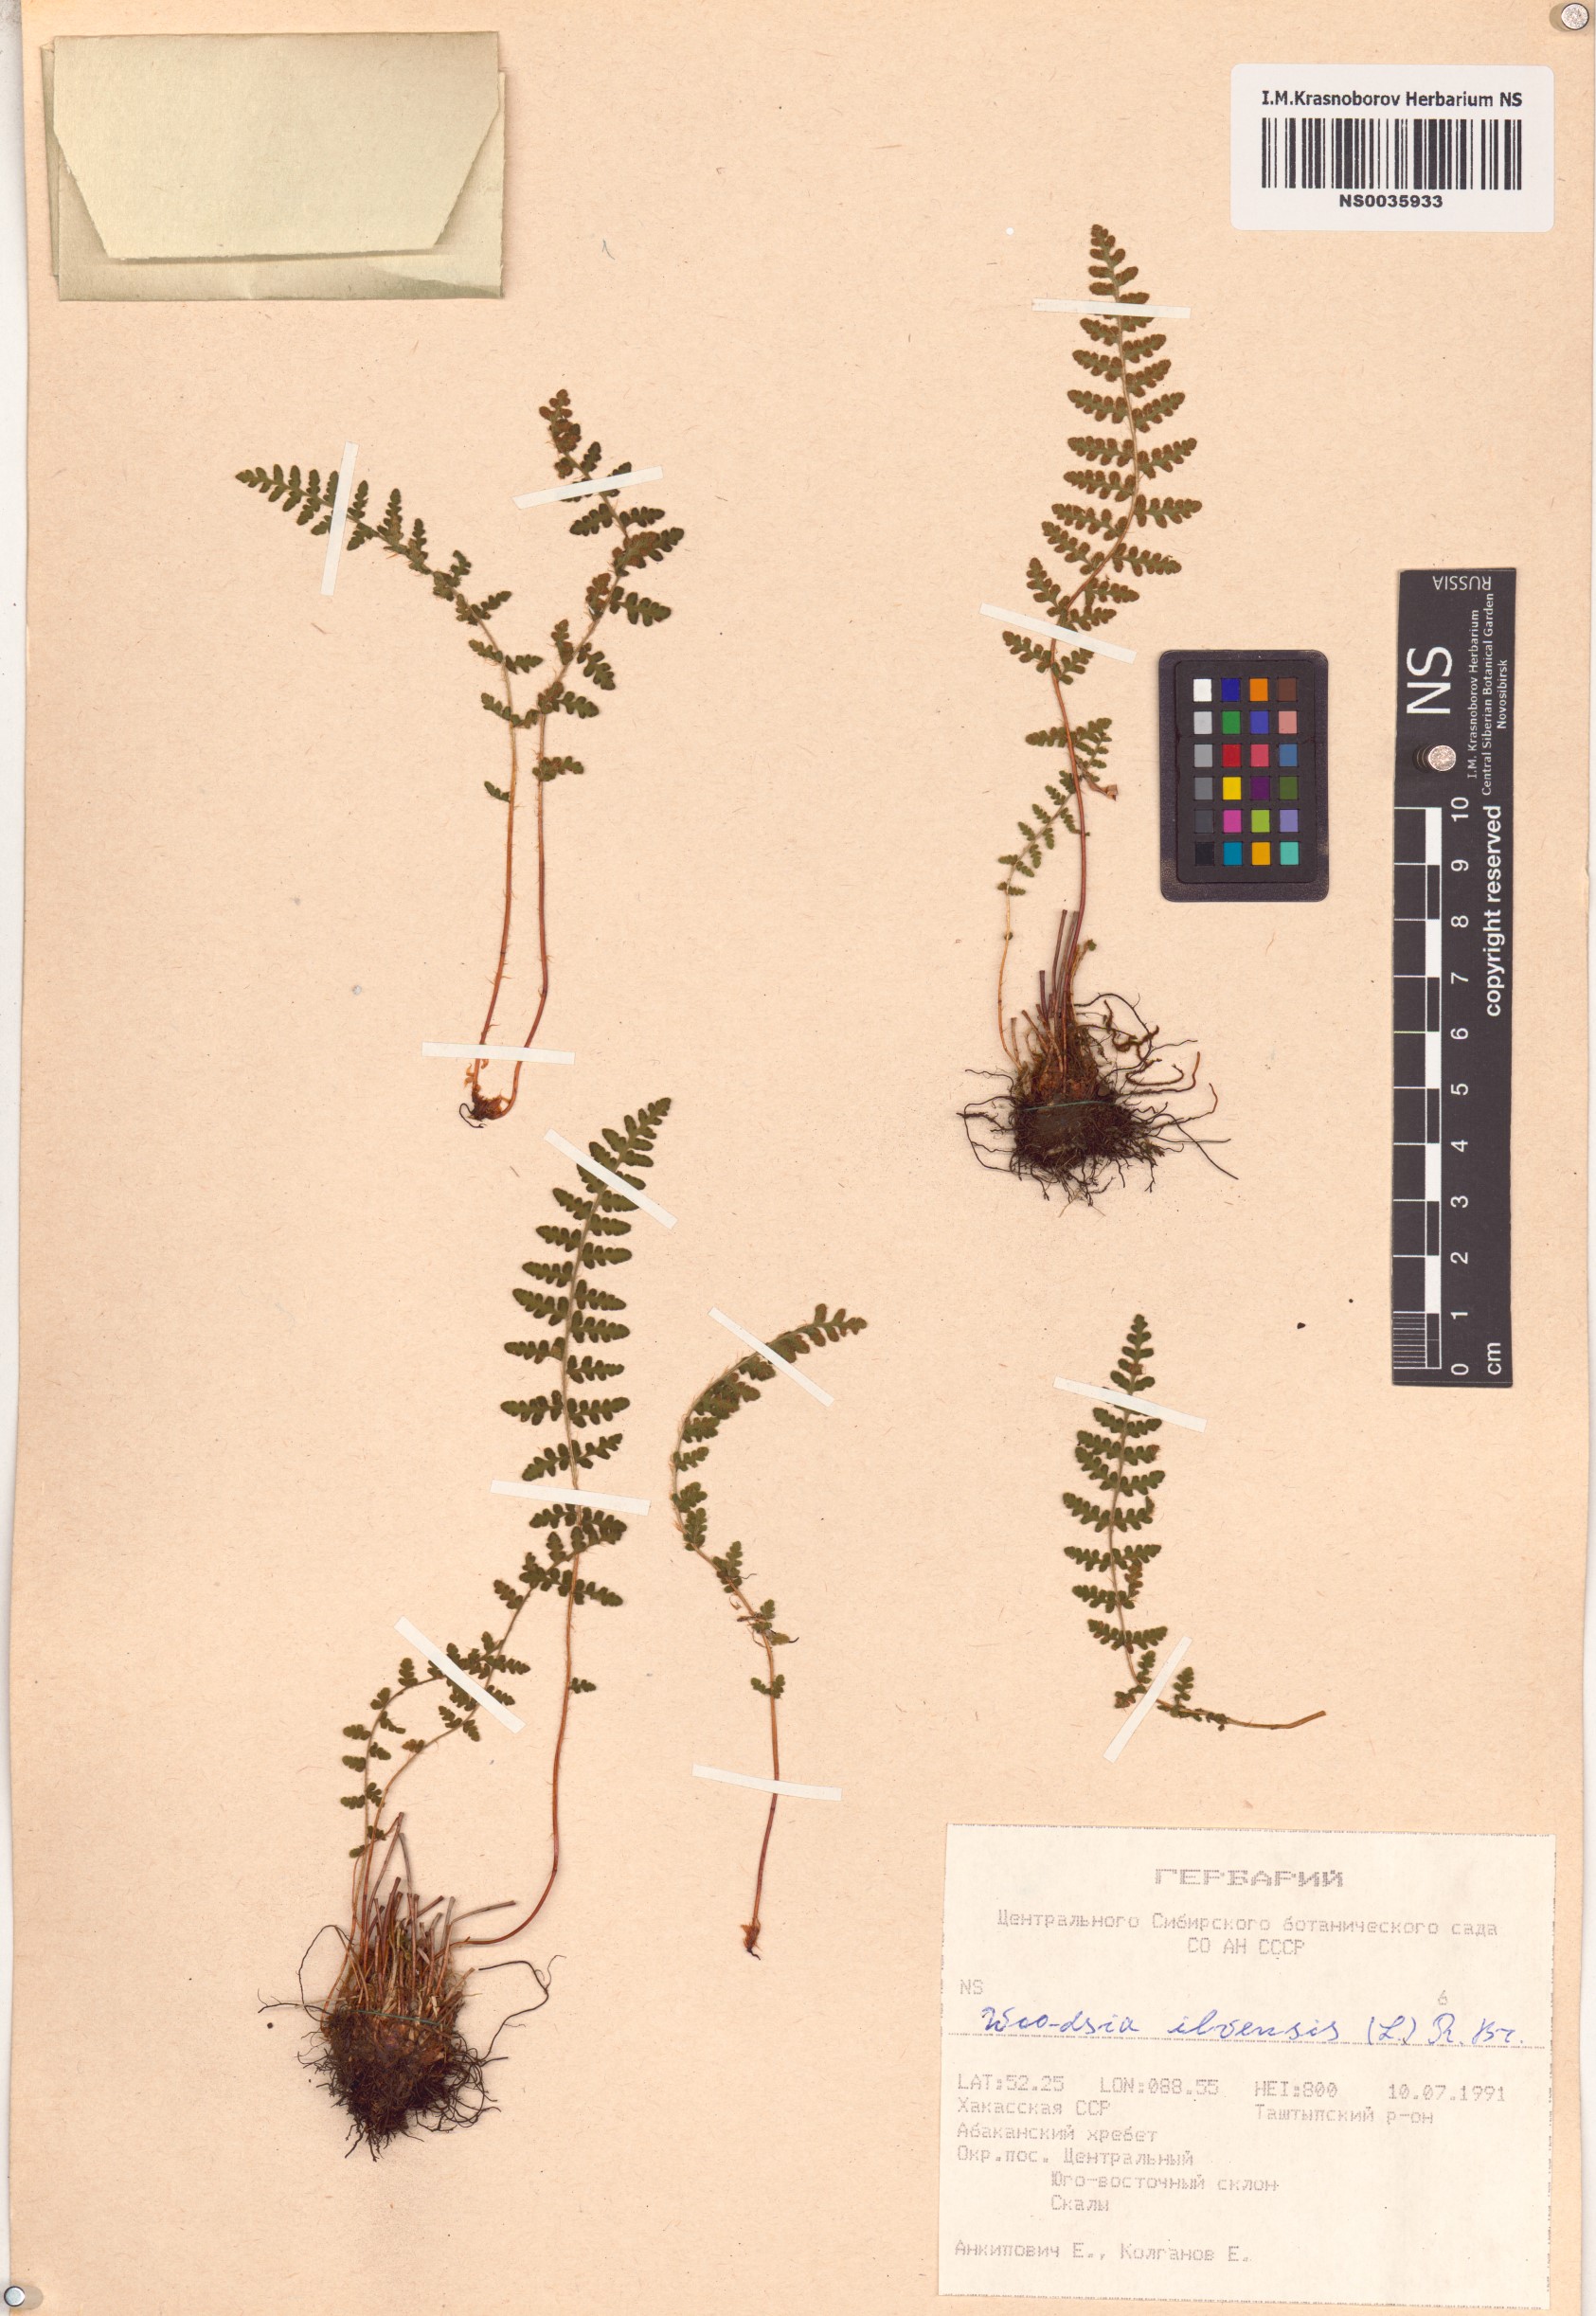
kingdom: Plantae
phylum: Tracheophyta
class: Polypodiopsida
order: Polypodiales
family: Woodsiaceae
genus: Woodsia
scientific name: Woodsia ilvensis
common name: Fragrant woodsia
